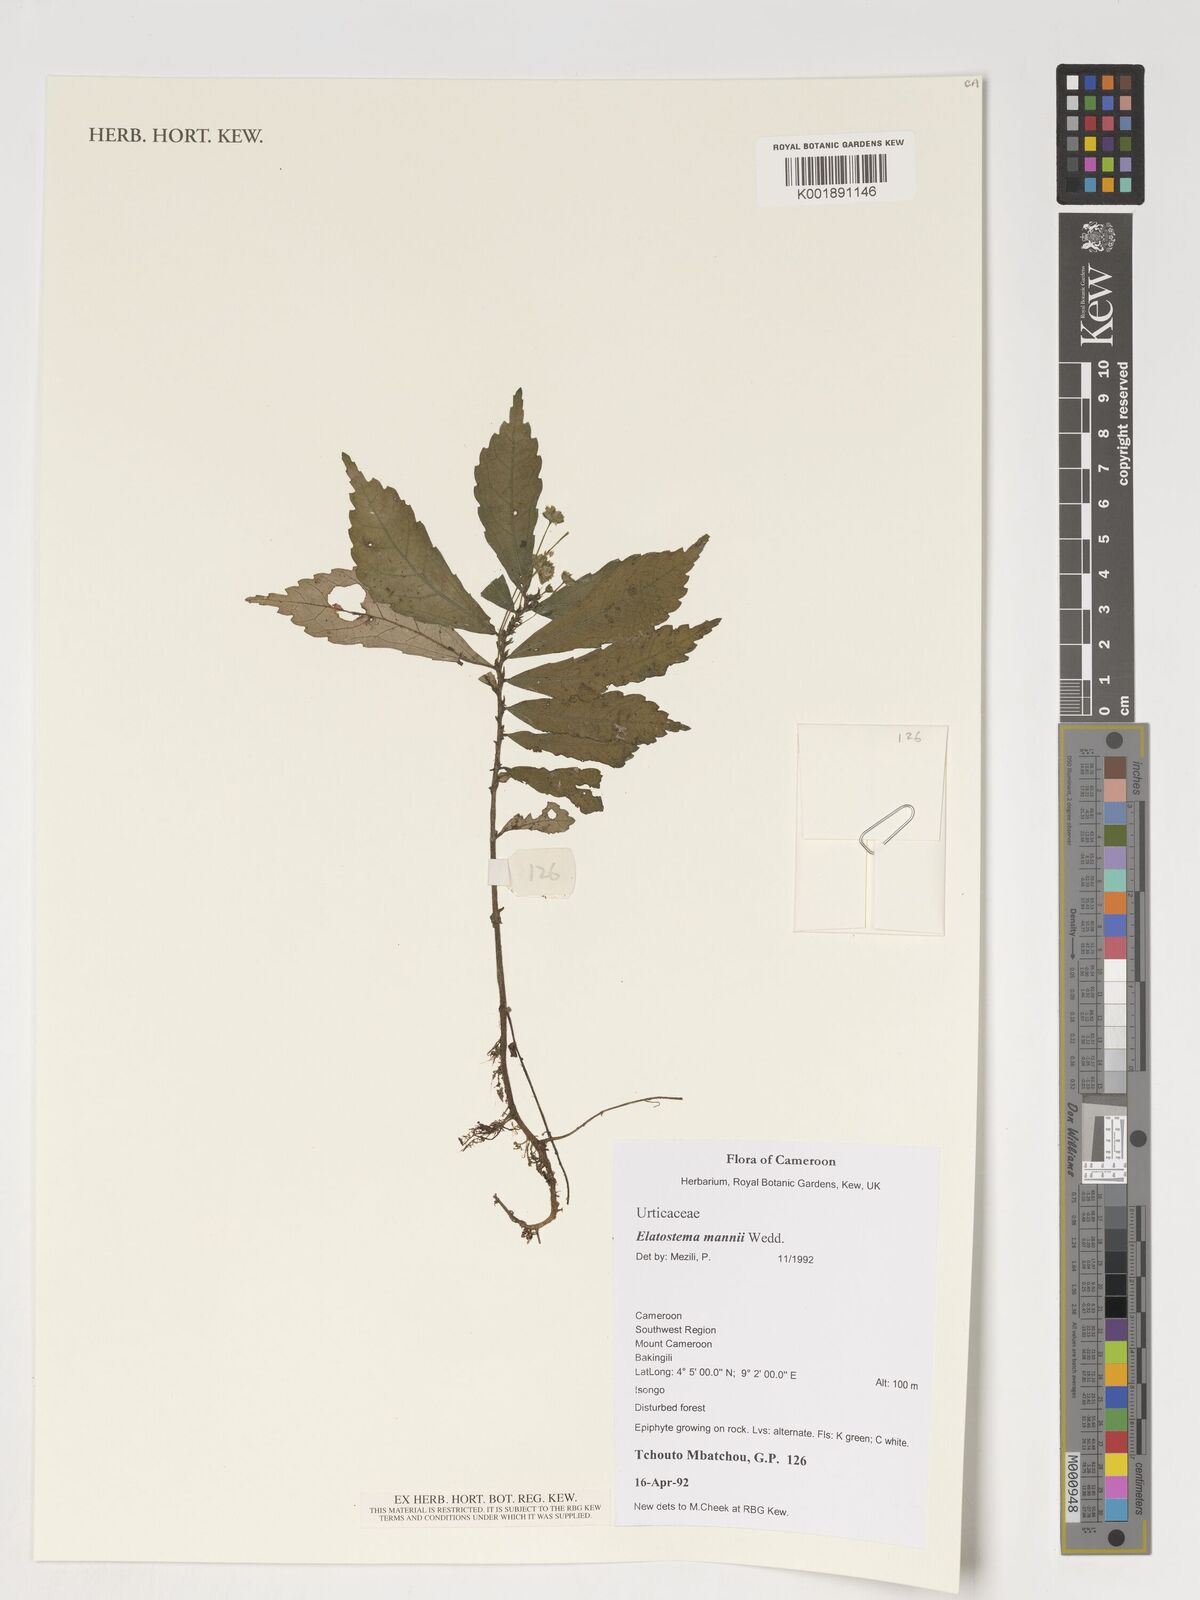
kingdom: Plantae
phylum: Tracheophyta
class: Magnoliopsida
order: Rosales
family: Urticaceae
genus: Elatostema
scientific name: Elatostema mannii
